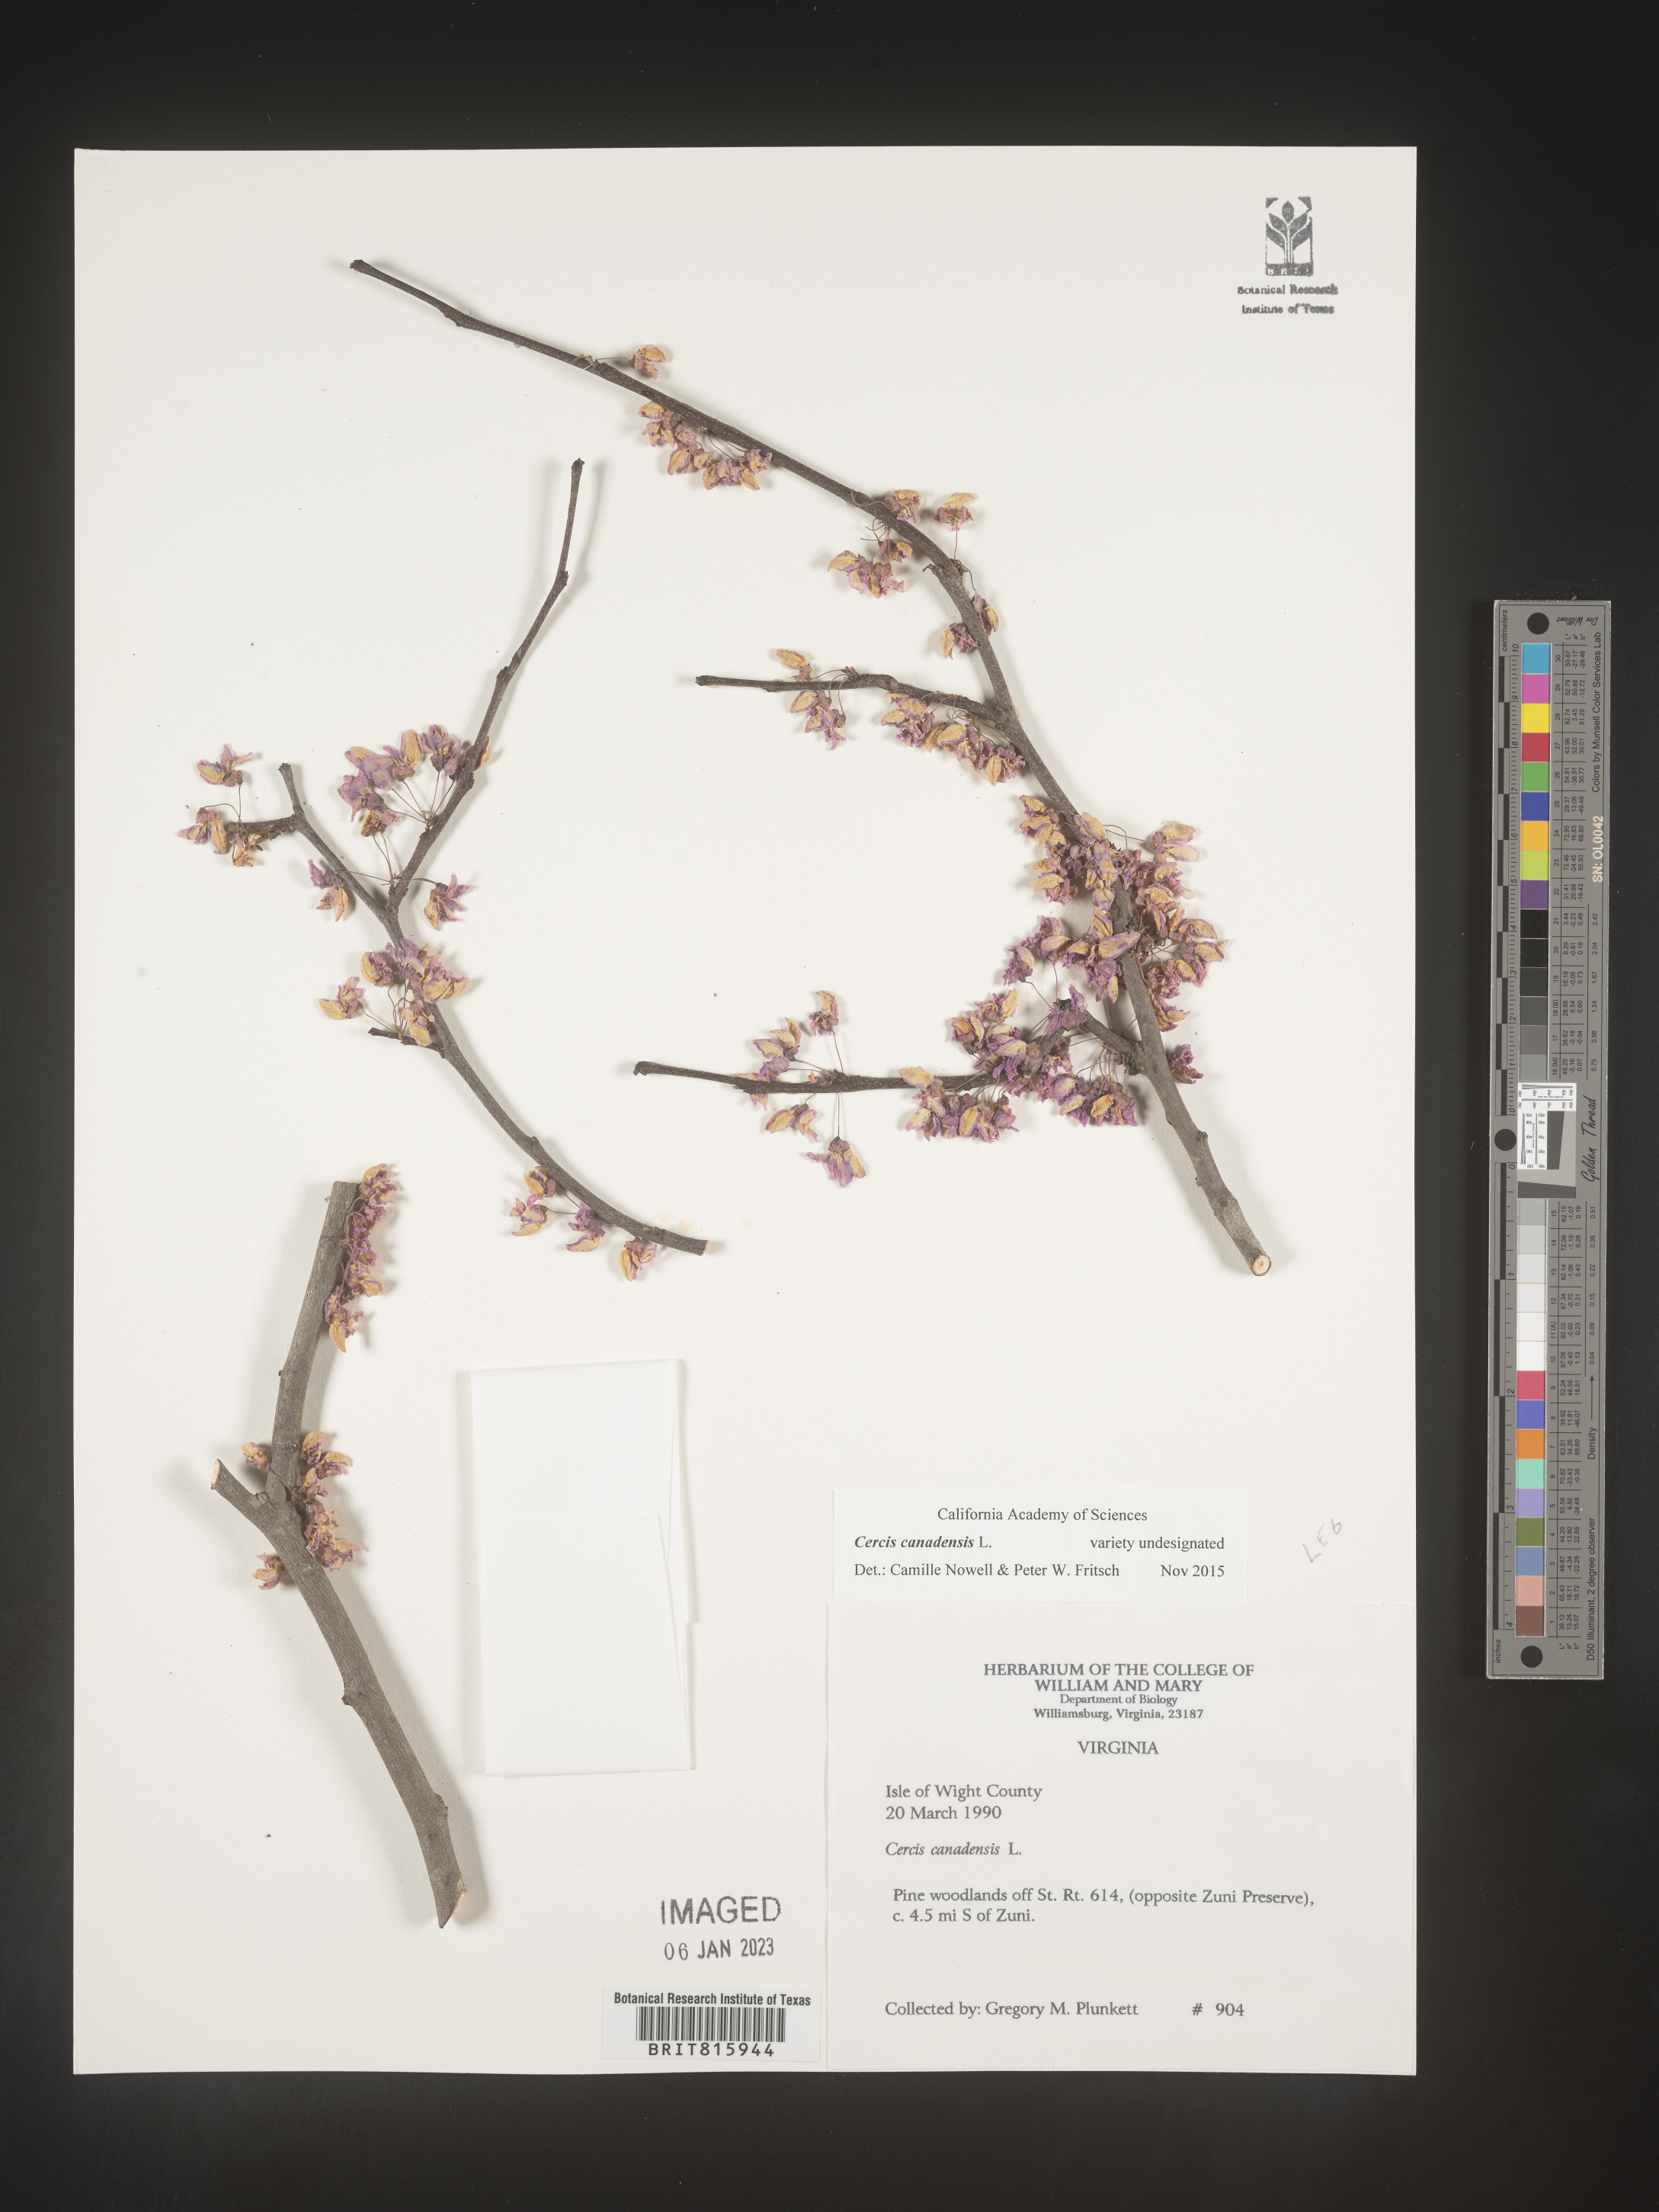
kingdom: Plantae
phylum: Tracheophyta
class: Magnoliopsida
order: Fabales
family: Fabaceae
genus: Cercis
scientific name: Cercis canadensis
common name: Eastern redbud
